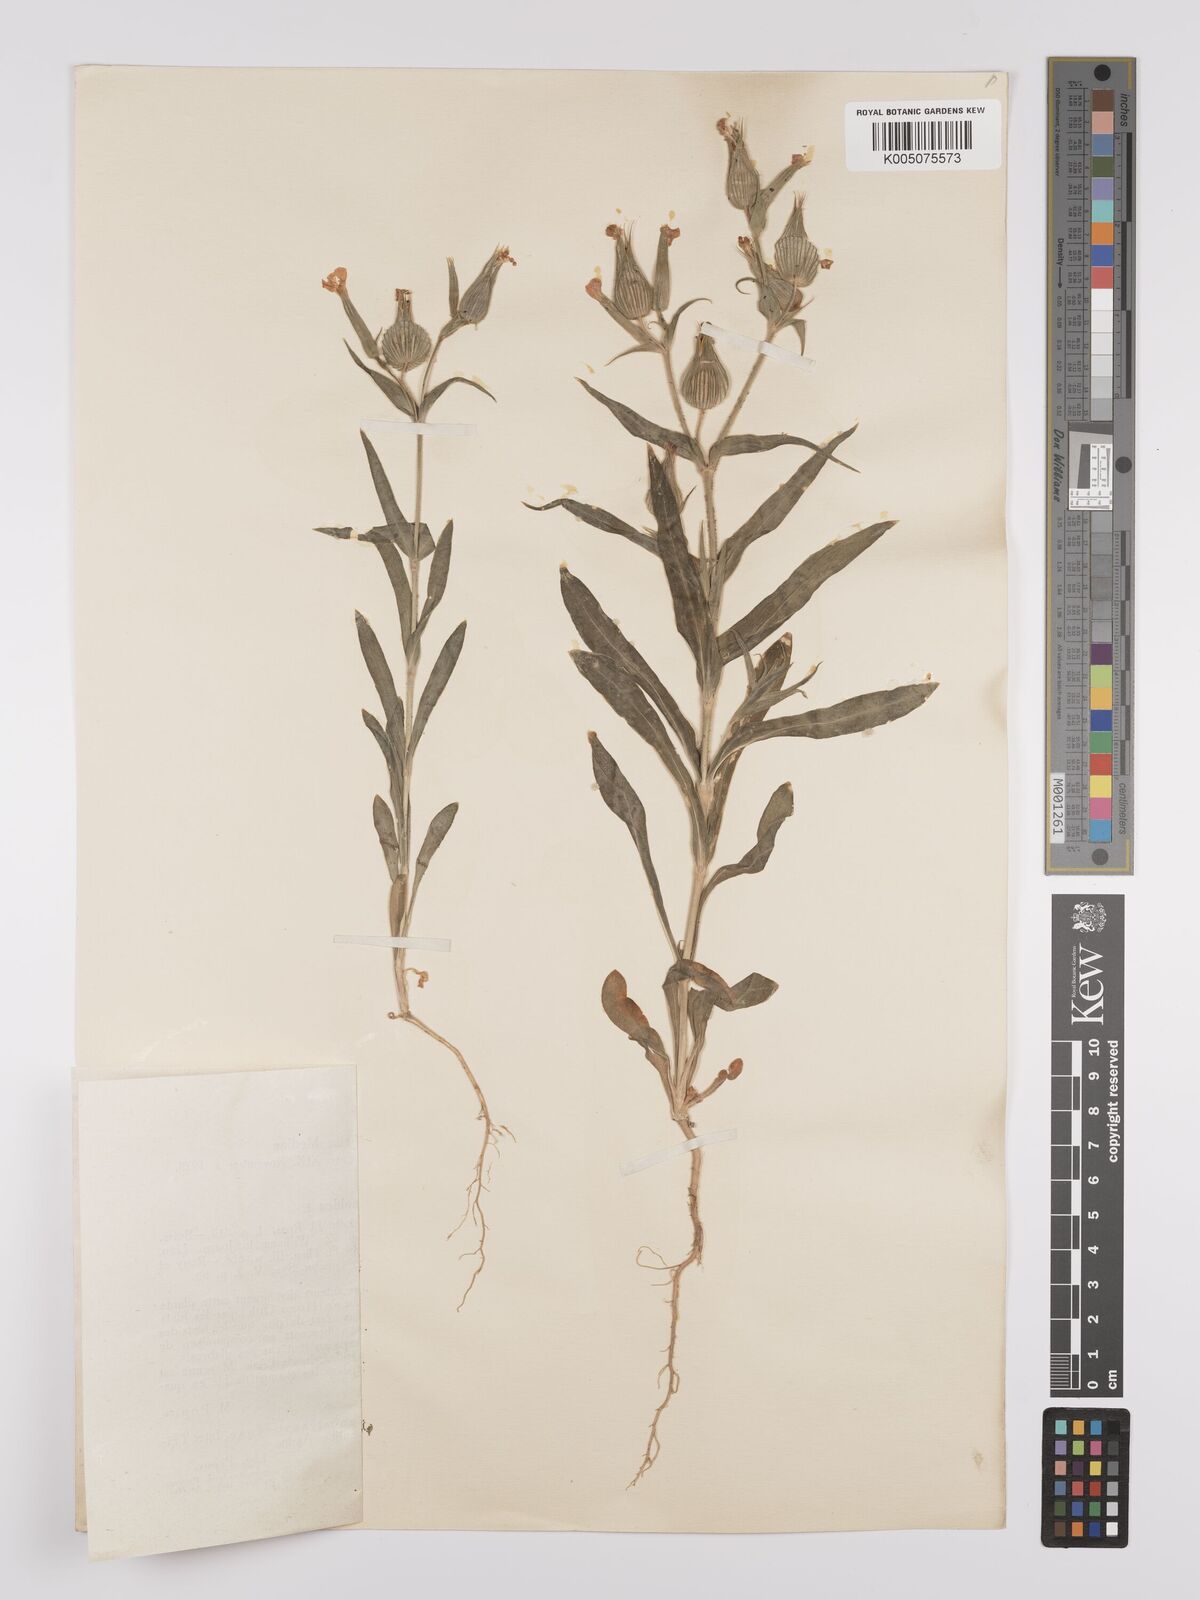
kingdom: Plantae
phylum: Tracheophyta
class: Magnoliopsida
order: Caryophyllales
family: Caryophyllaceae
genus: Silene
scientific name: Silene
